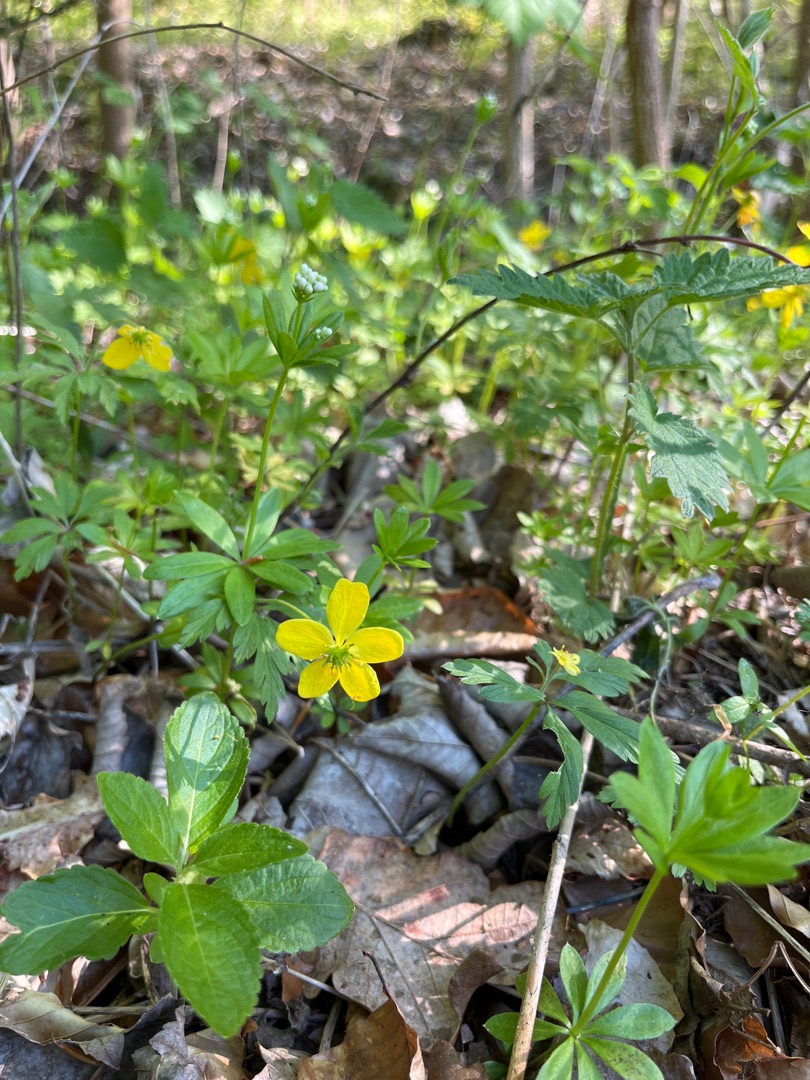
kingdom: Plantae
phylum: Tracheophyta
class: Magnoliopsida
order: Ranunculales
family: Ranunculaceae
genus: Anemone
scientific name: Anemone ranunculoides
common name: Gul anemone
